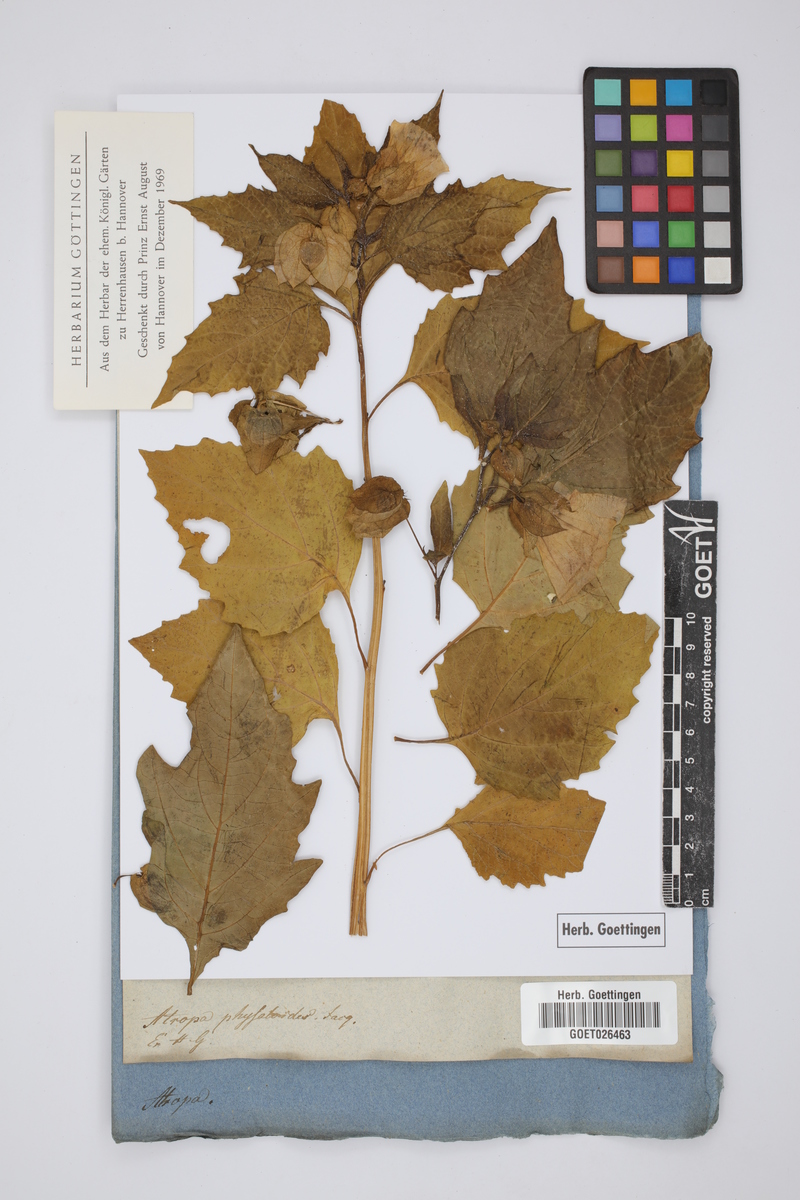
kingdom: Plantae
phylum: Tracheophyta
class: Magnoliopsida
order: Solanales
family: Solanaceae
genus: Nicandra
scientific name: Nicandra physalodes
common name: Apple-of-peru
